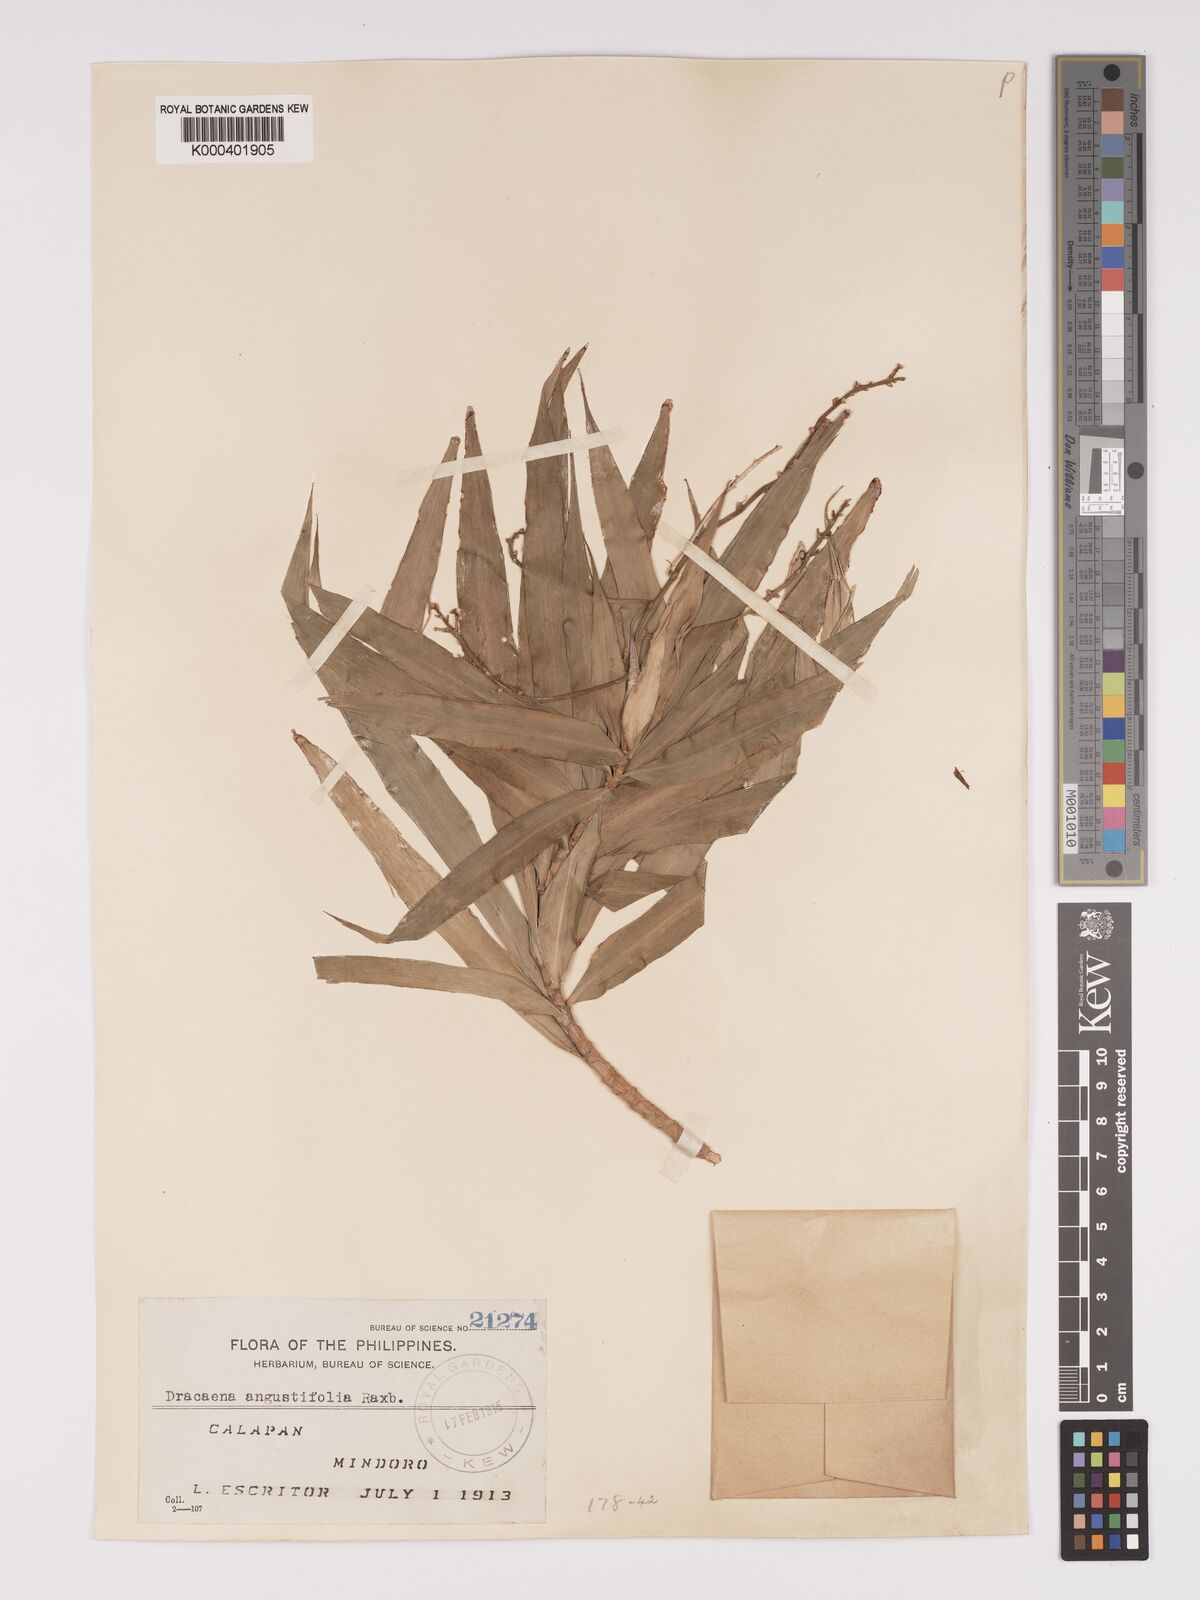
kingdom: Plantae
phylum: Tracheophyta
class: Liliopsida
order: Asparagales
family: Asparagaceae
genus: Dracaena
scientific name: Dracaena angustifolia
